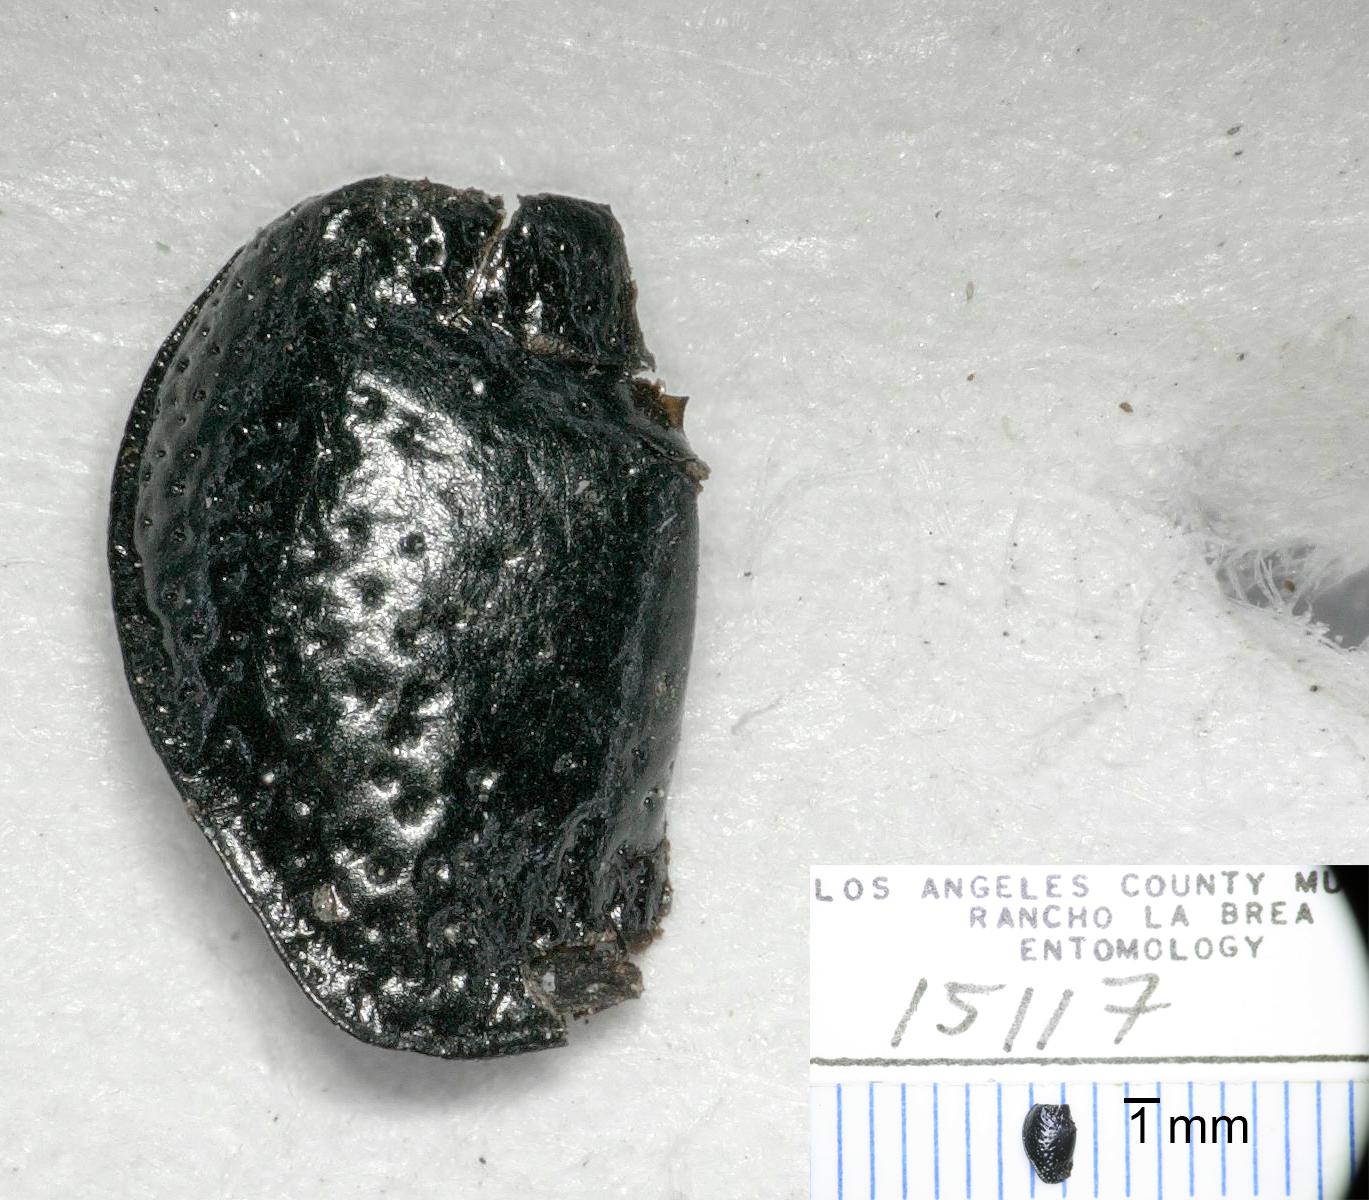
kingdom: Animalia
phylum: Arthropoda
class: Insecta
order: Coleoptera
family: Carabidae
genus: Dicheirus
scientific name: Dicheirus
